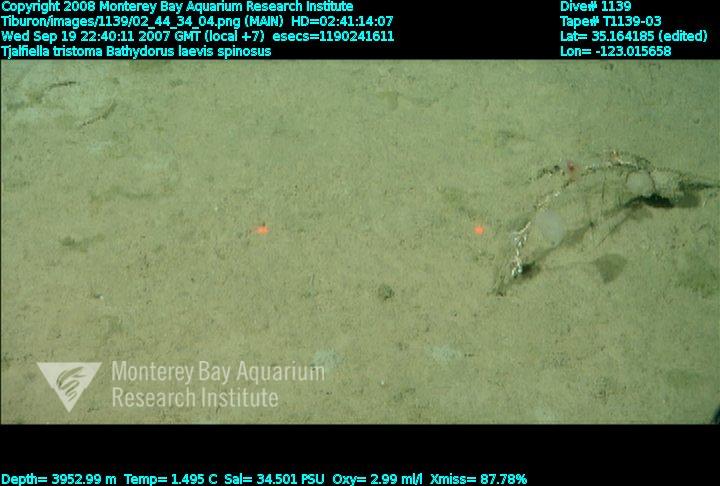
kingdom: Animalia
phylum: Porifera
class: Hexactinellida
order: Lyssacinosida
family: Rossellidae
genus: Bathydorus
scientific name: Bathydorus spinosus
